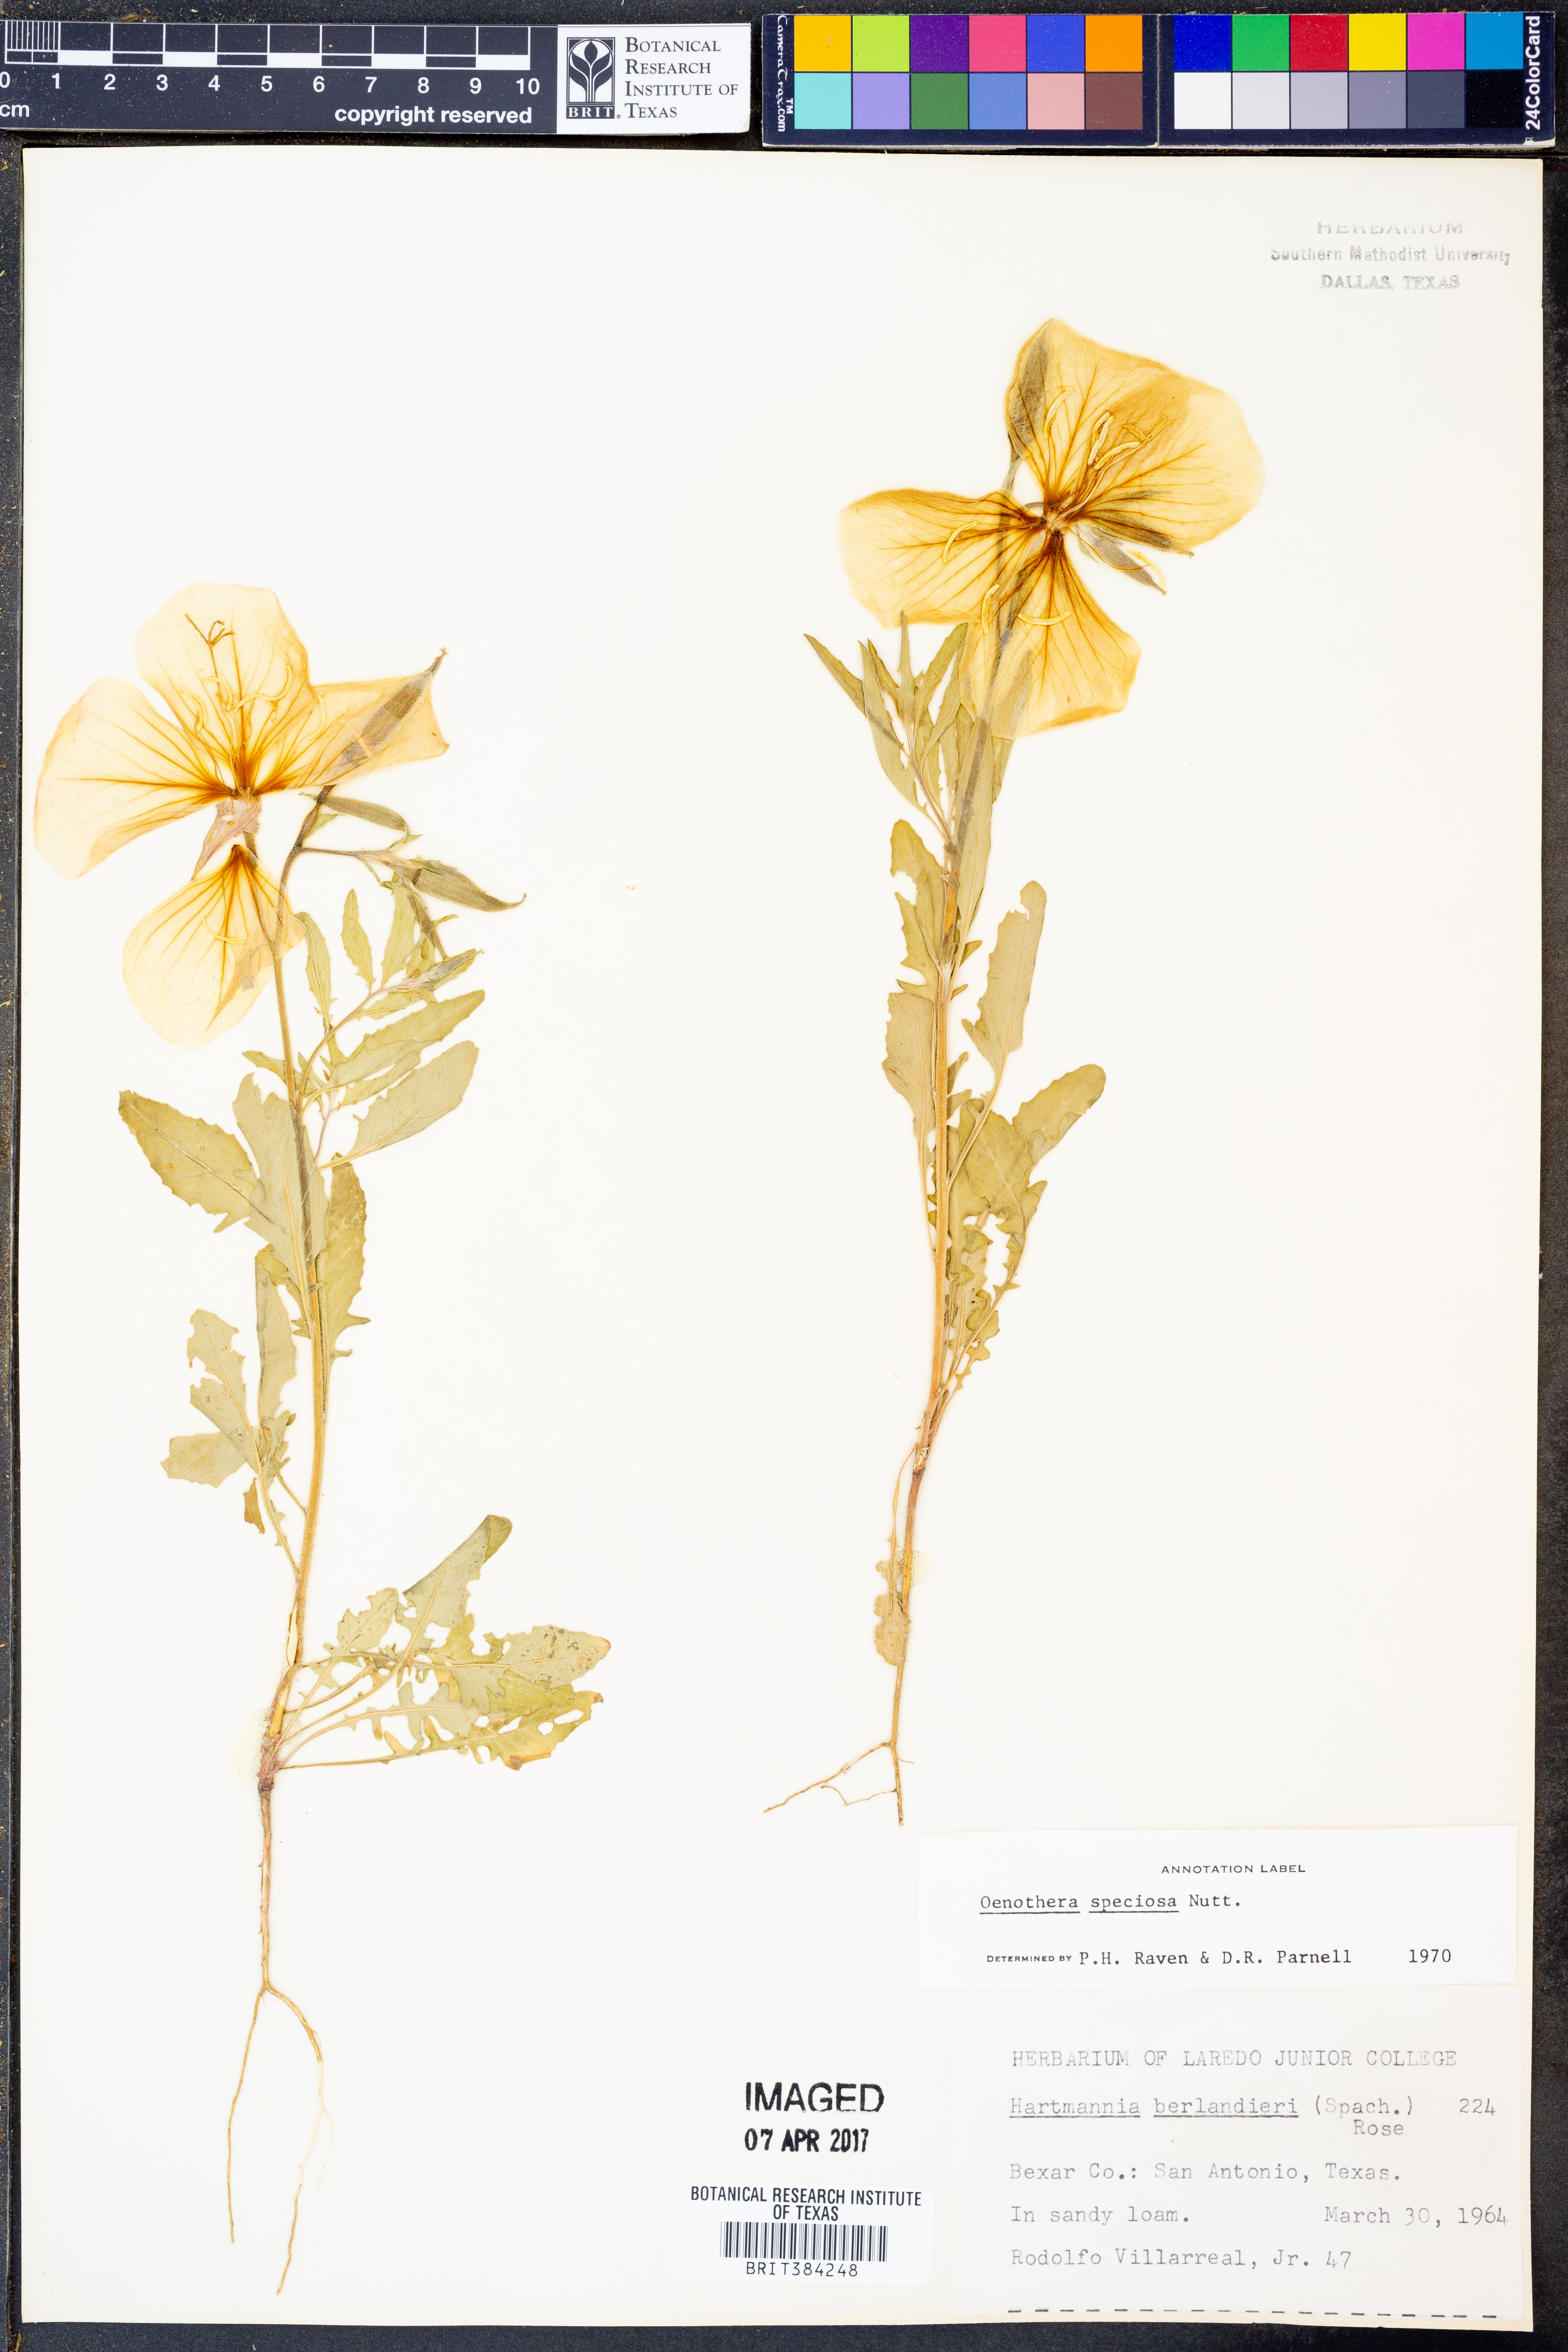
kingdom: Plantae
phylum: Tracheophyta
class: Magnoliopsida
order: Myrtales
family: Onagraceae
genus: Oenothera
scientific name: Oenothera speciosa
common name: White evening-primrose
